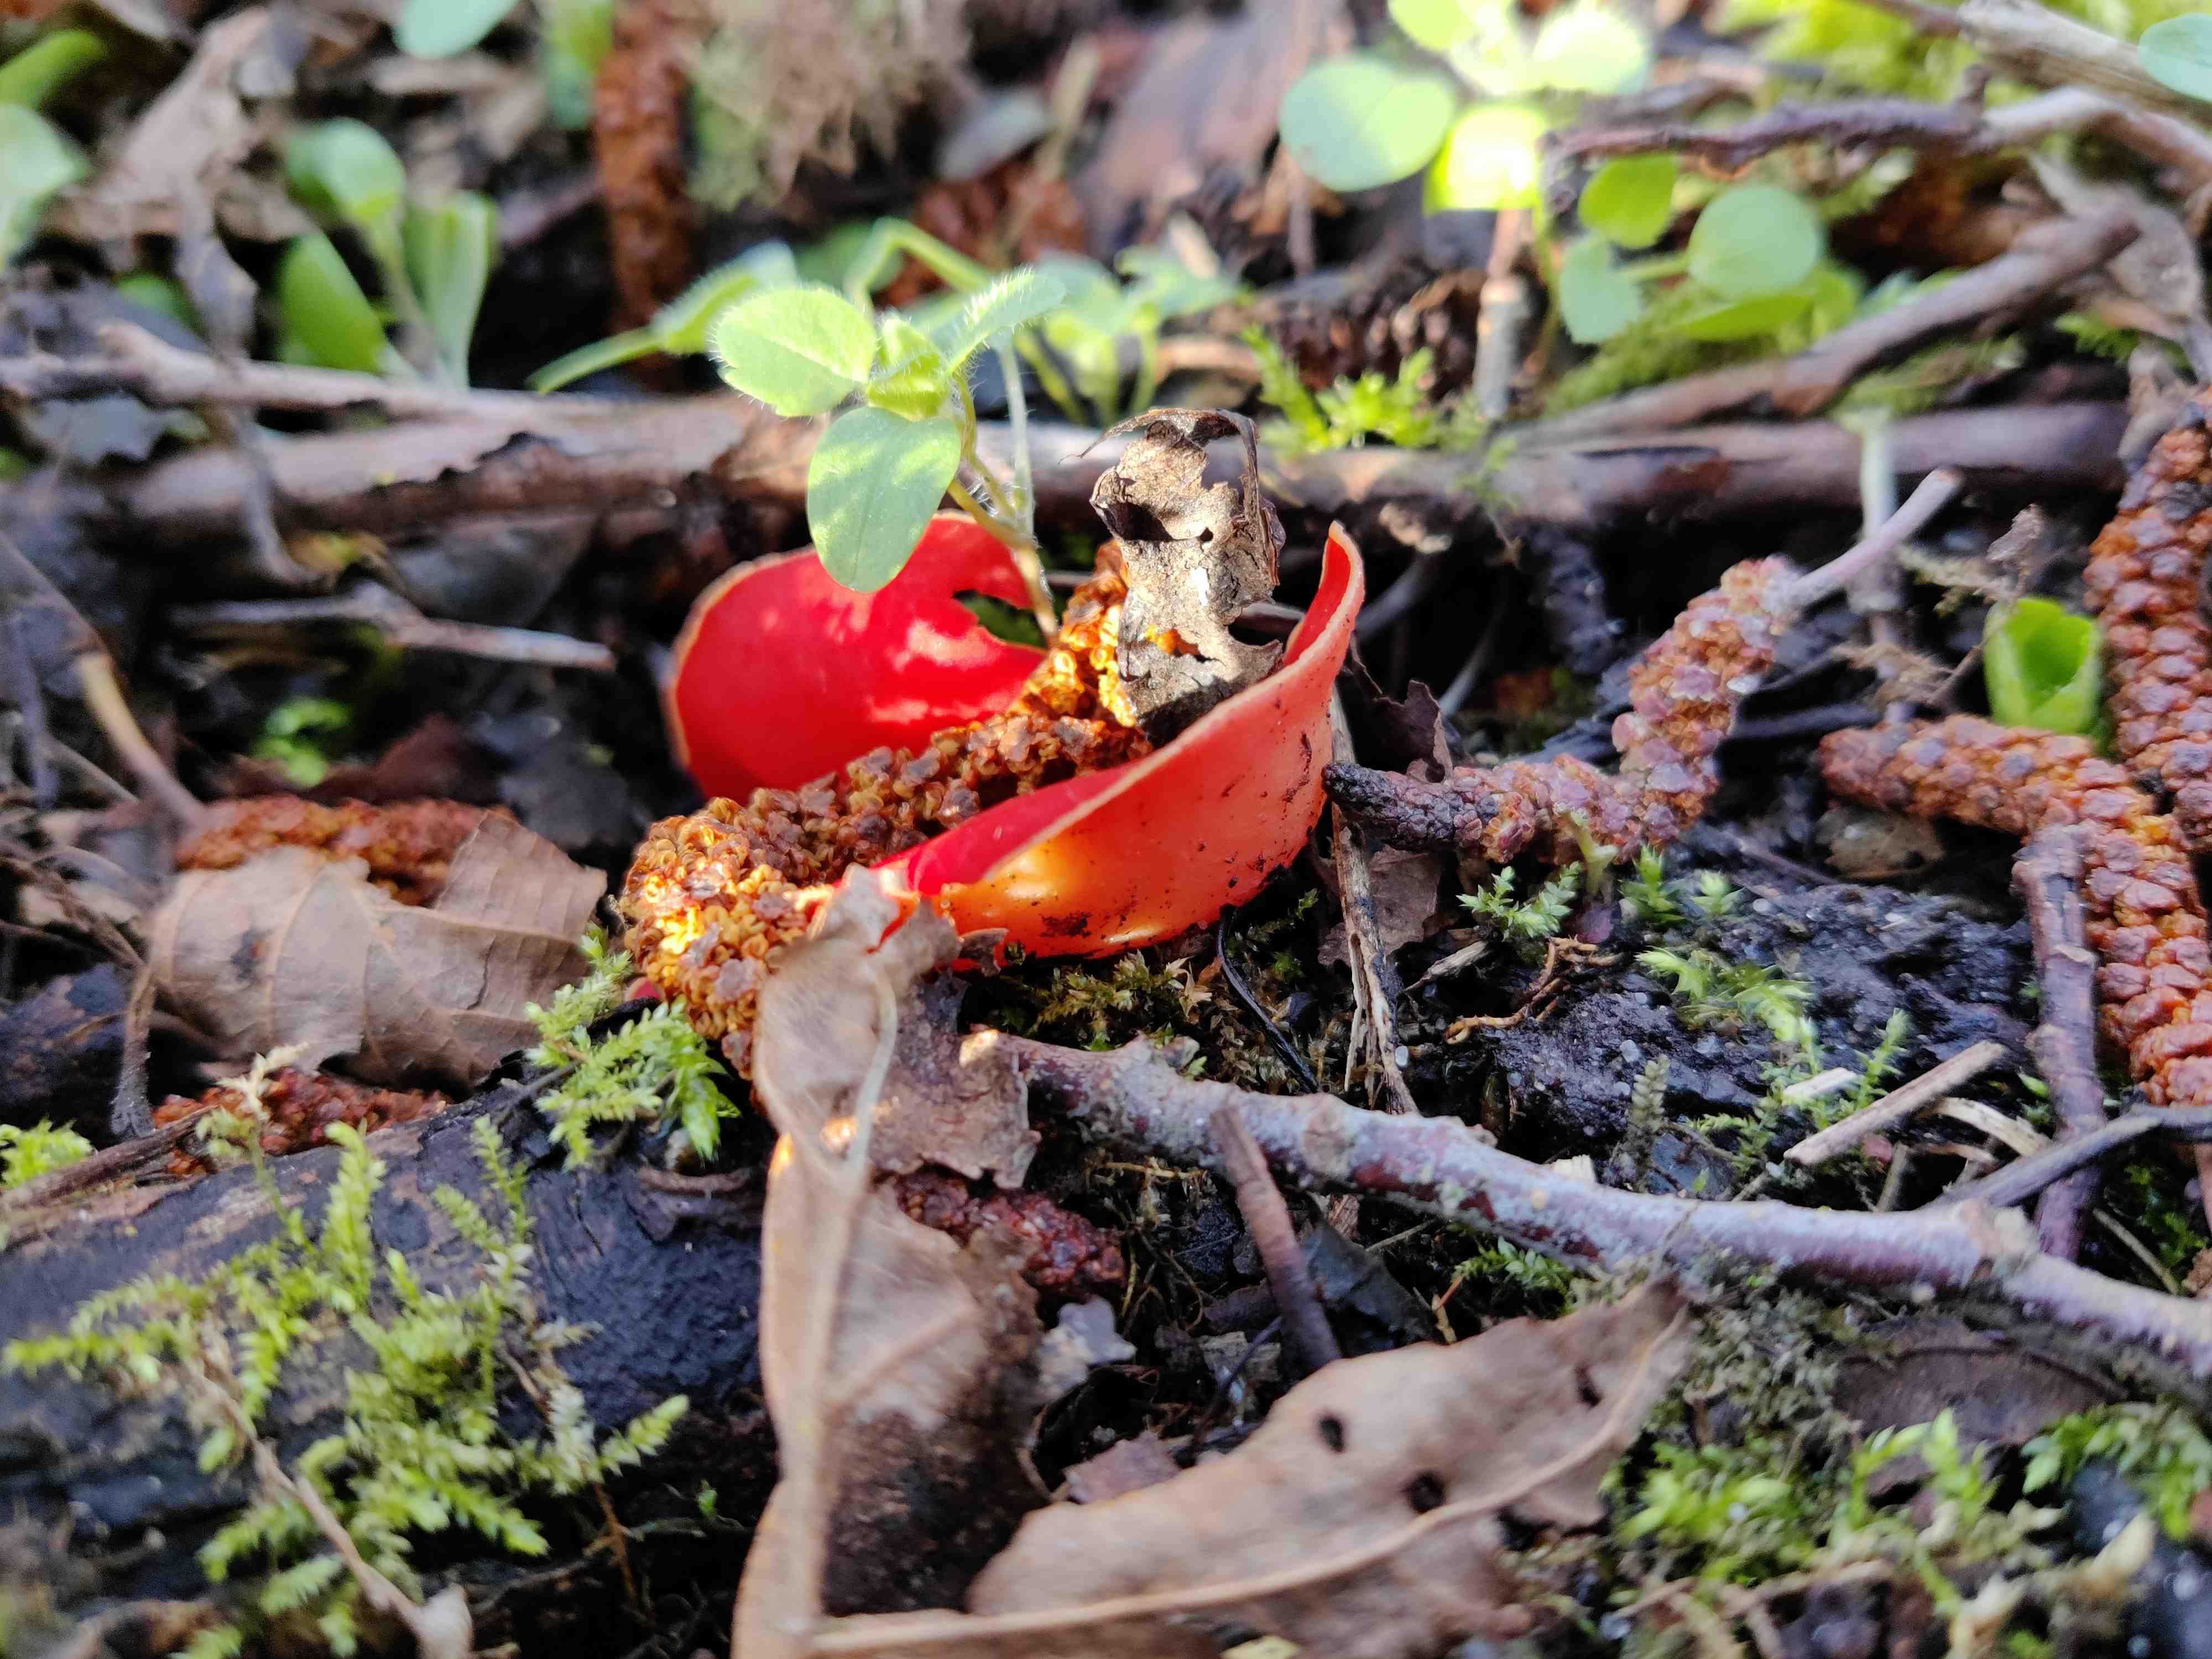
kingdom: Fungi
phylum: Ascomycota
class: Pezizomycetes
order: Pezizales
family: Sarcoscyphaceae
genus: Sarcoscypha
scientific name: Sarcoscypha austriaca
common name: krølhåret pragtbæger
